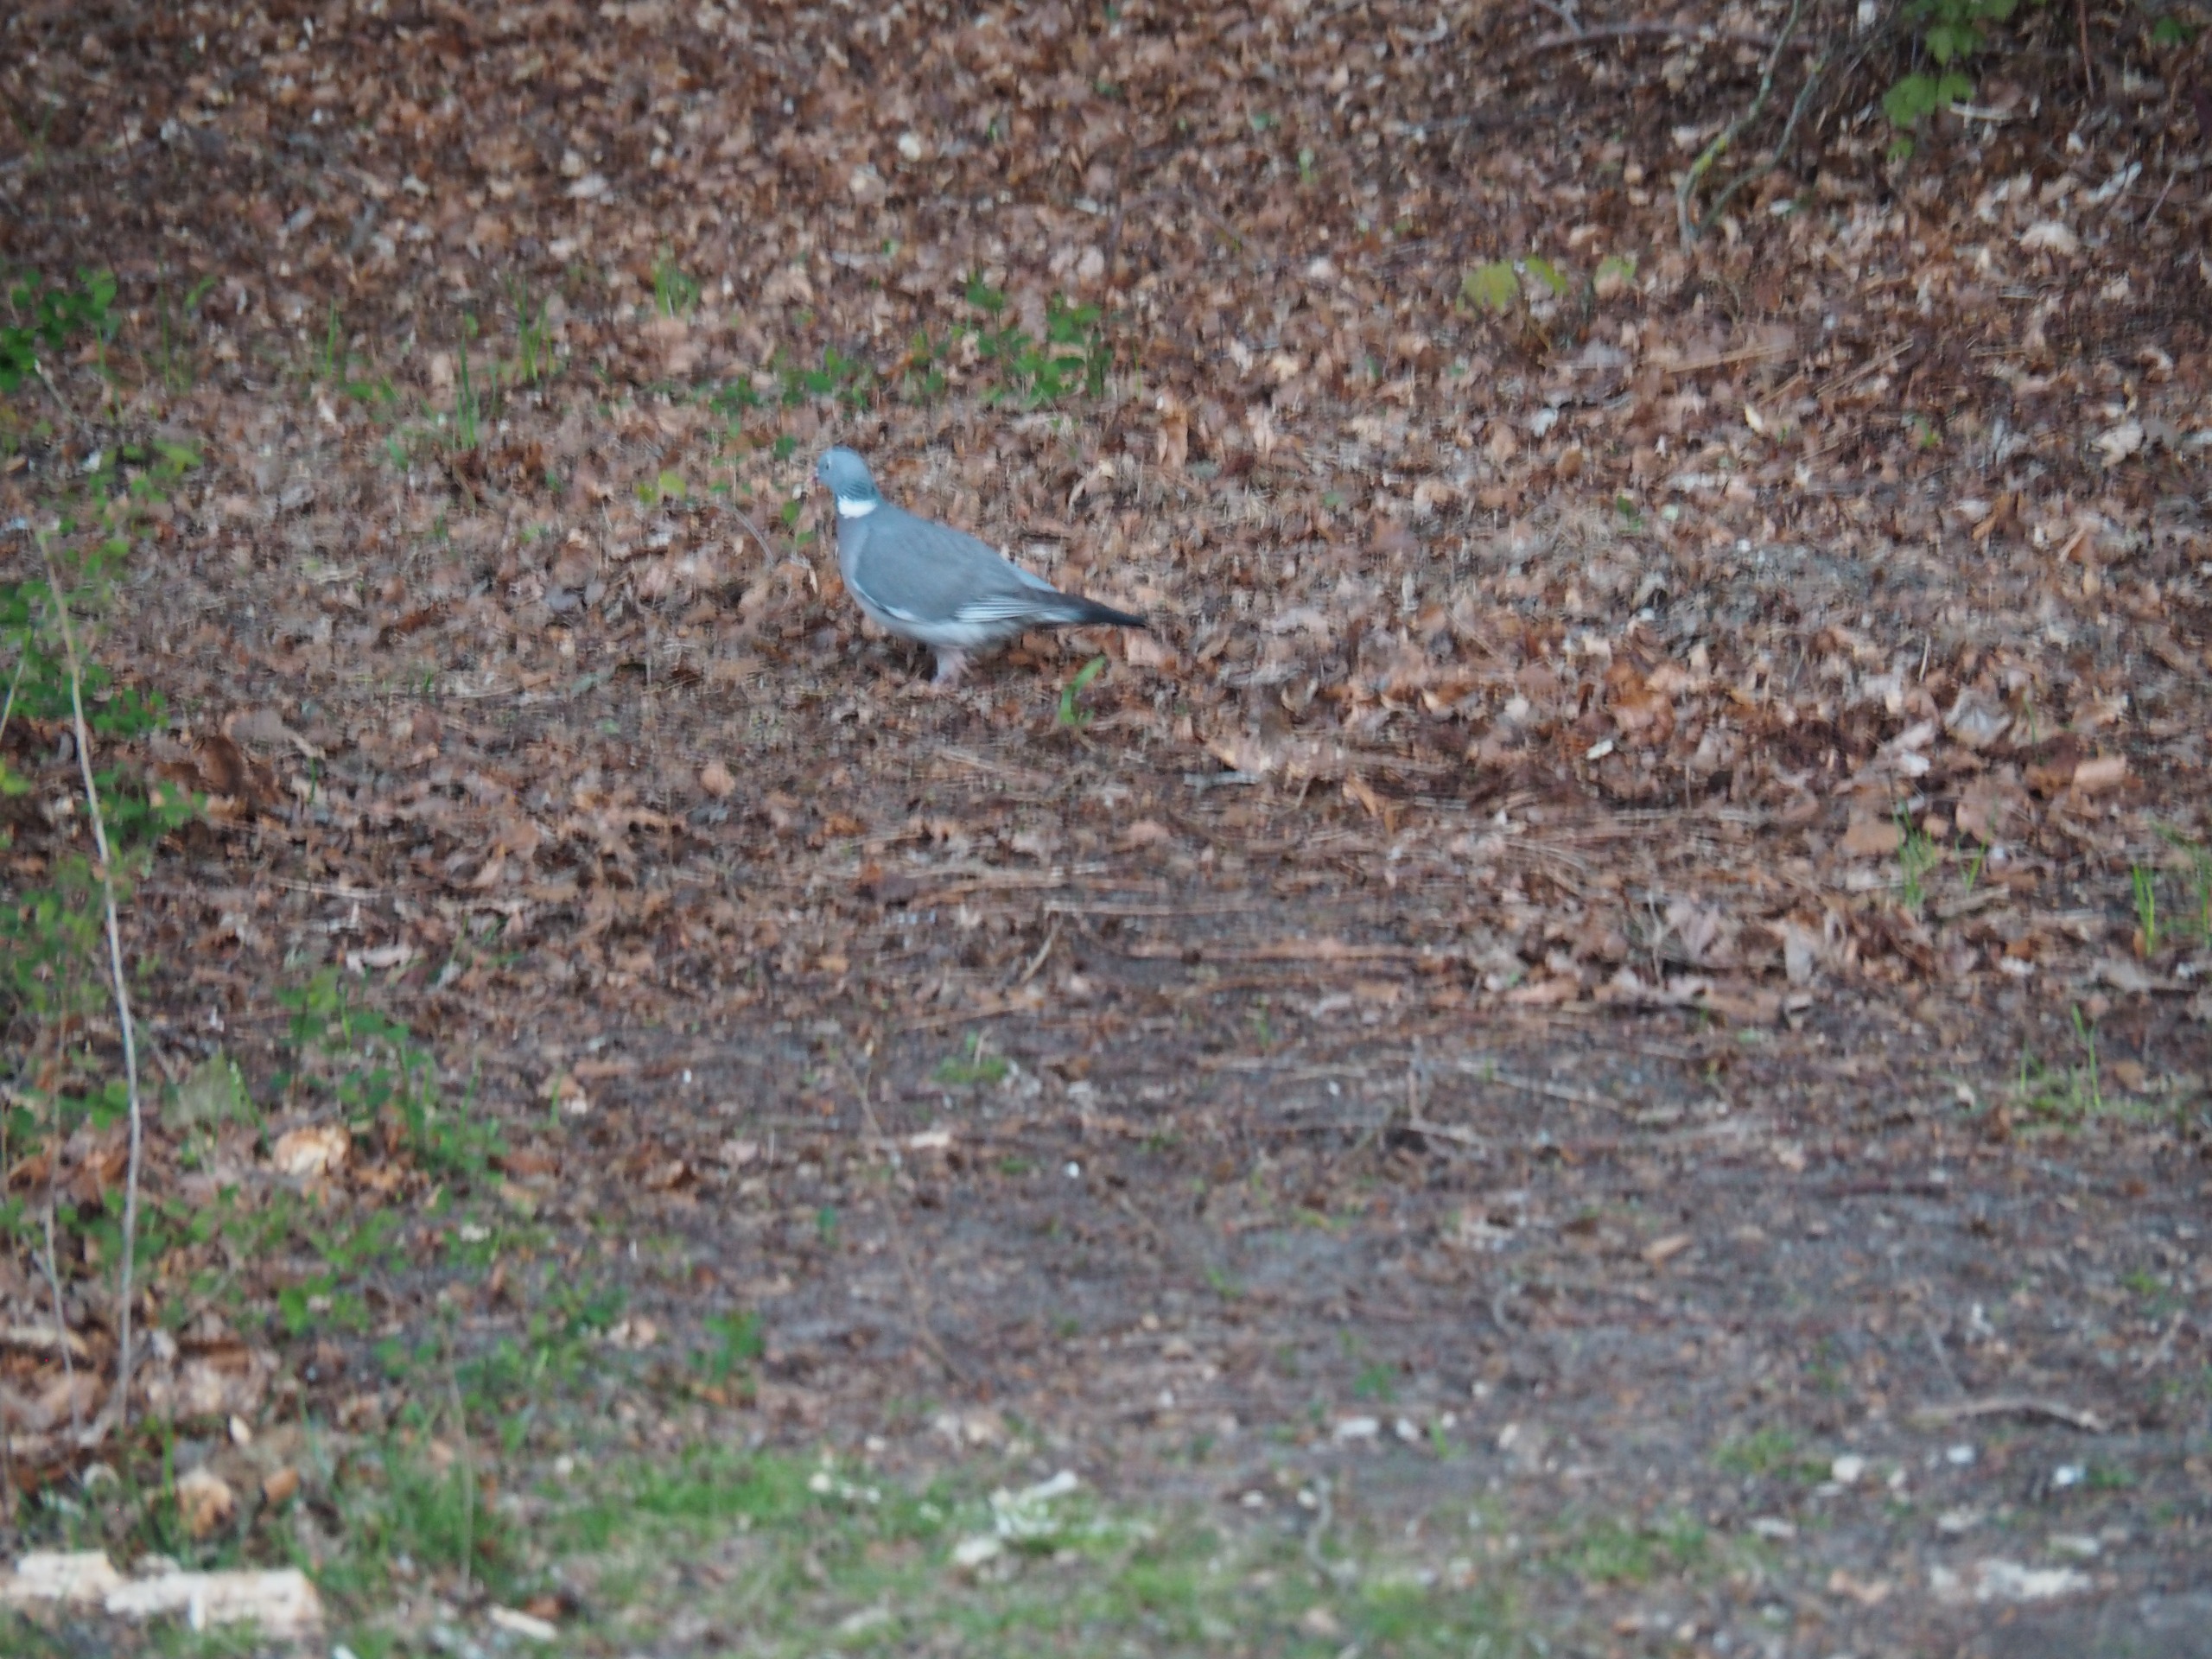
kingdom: Animalia
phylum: Chordata
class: Aves
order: Columbiformes
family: Columbidae
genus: Columba
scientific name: Columba palumbus
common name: Ringdue
